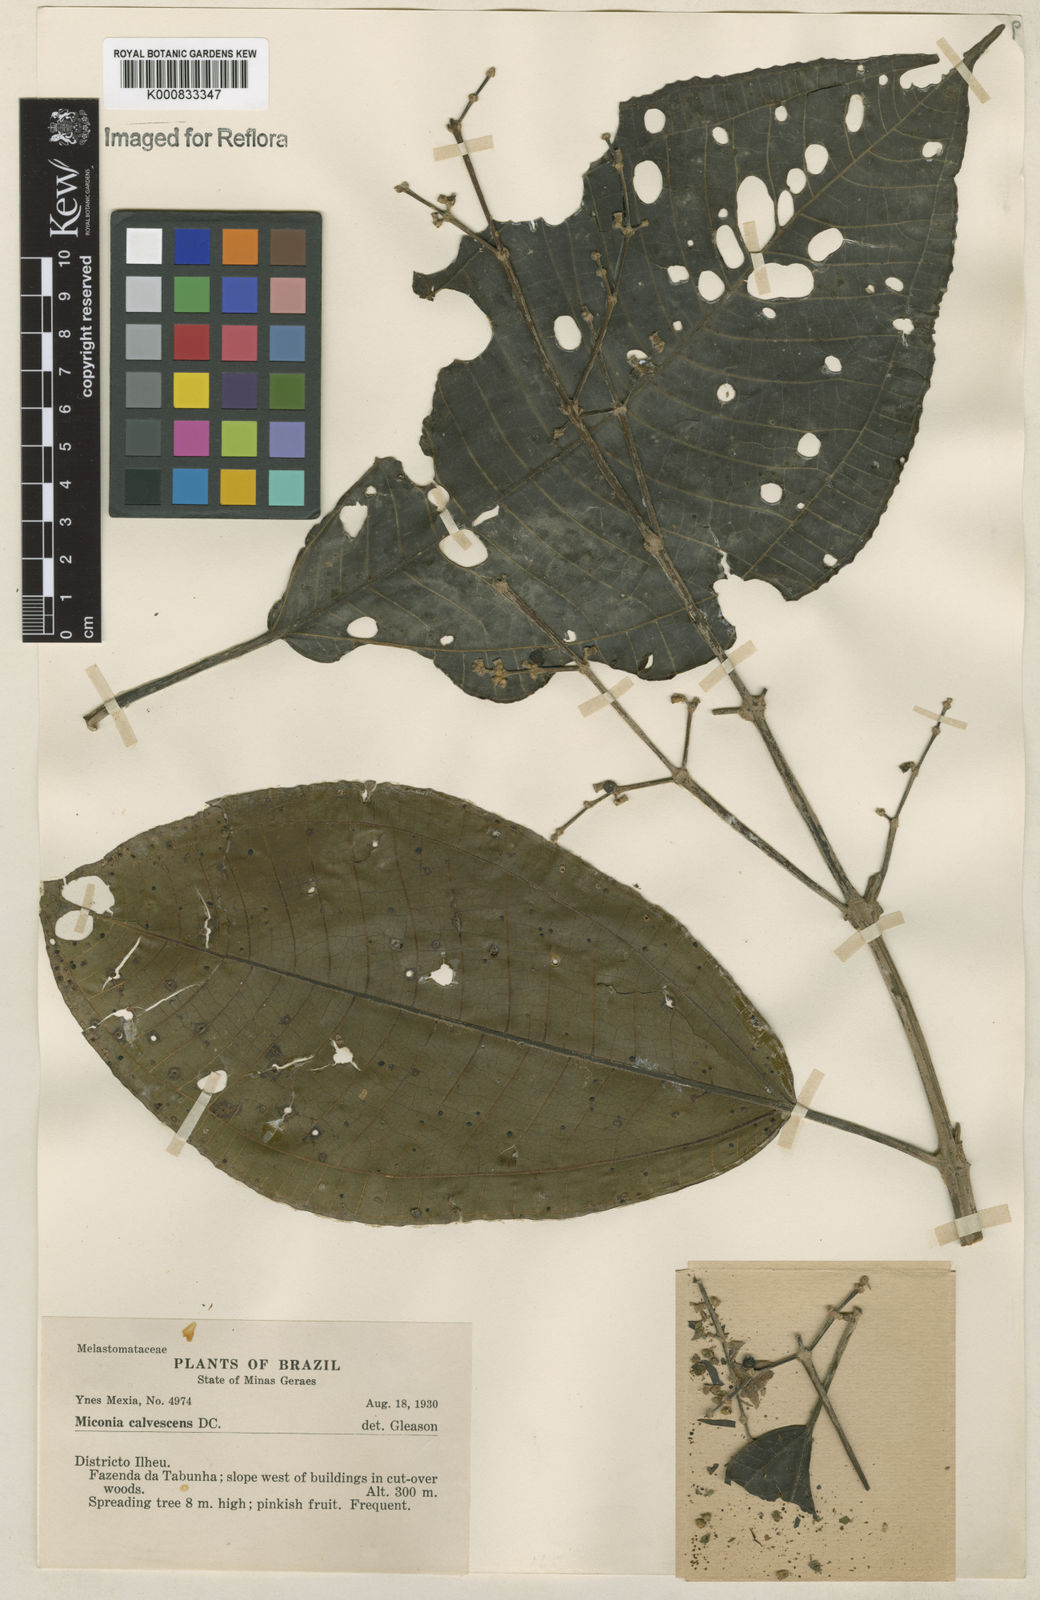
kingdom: Plantae
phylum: Tracheophyta
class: Magnoliopsida
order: Myrtales
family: Melastomataceae
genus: Miconia
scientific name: Miconia calvescens
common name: Purple plague
